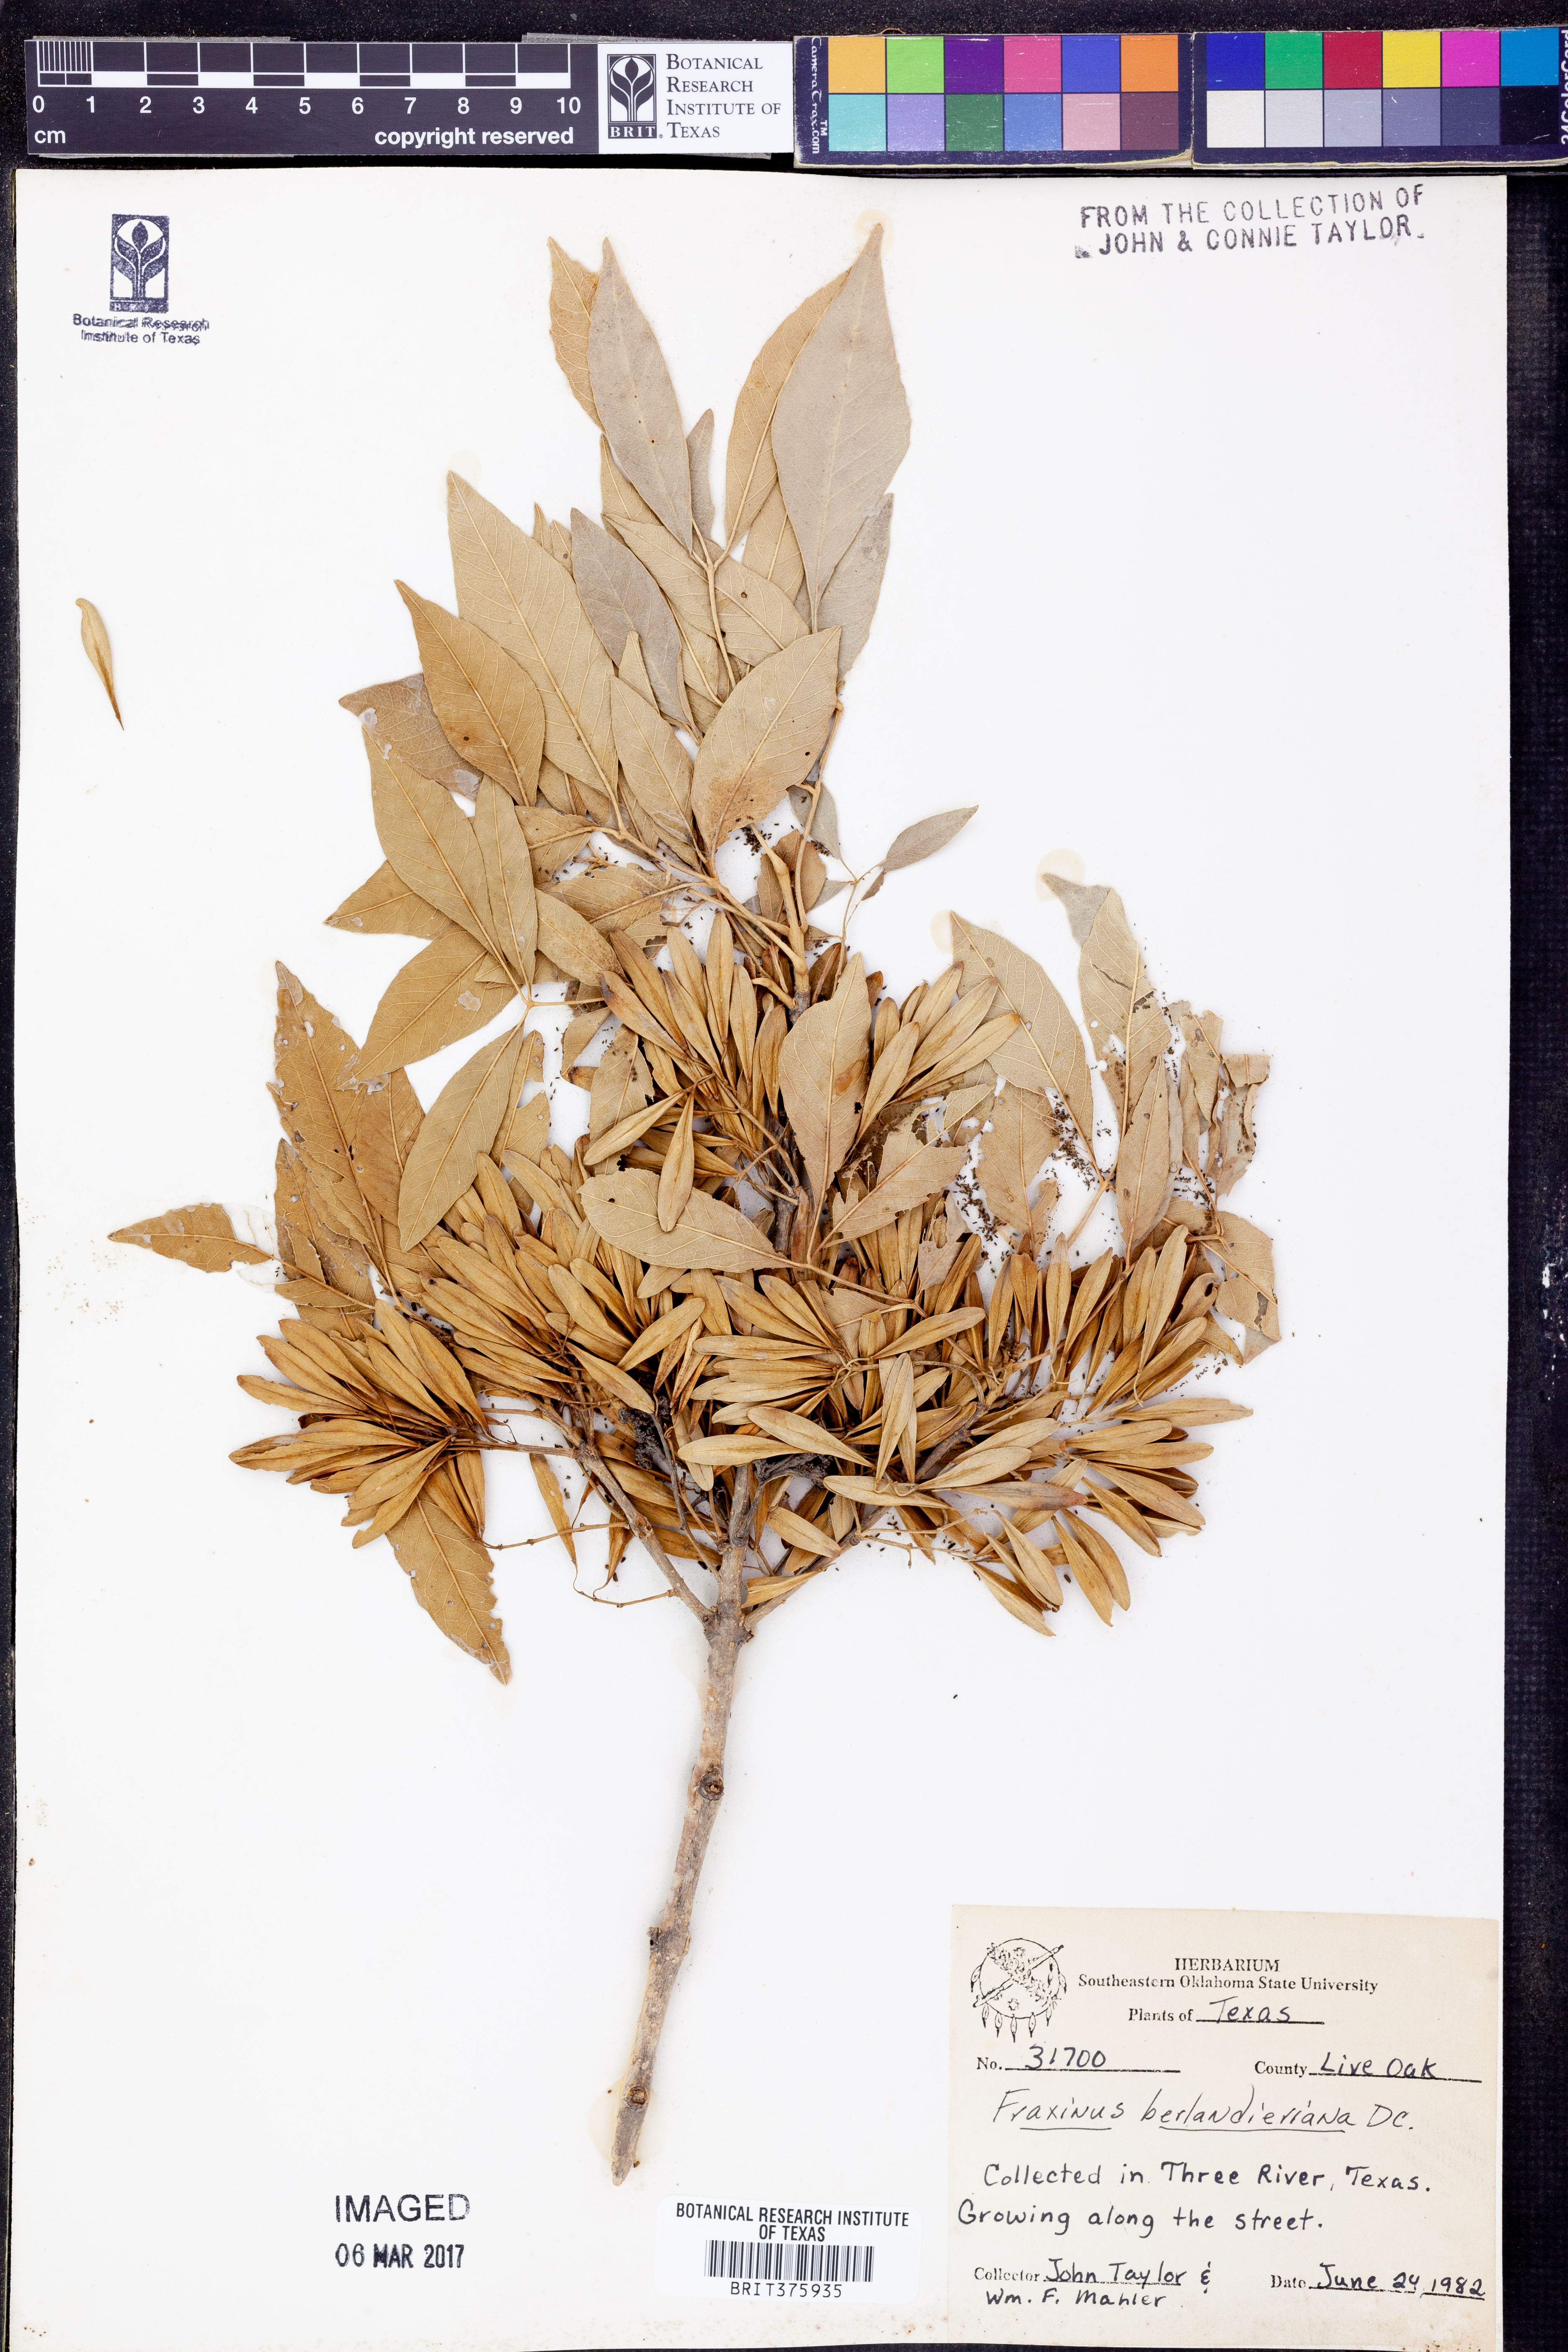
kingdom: Plantae
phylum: Tracheophyta
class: Magnoliopsida
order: Lamiales
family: Oleaceae
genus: Fraxinus
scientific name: Fraxinus berlandieriana
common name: Berlandier ash
